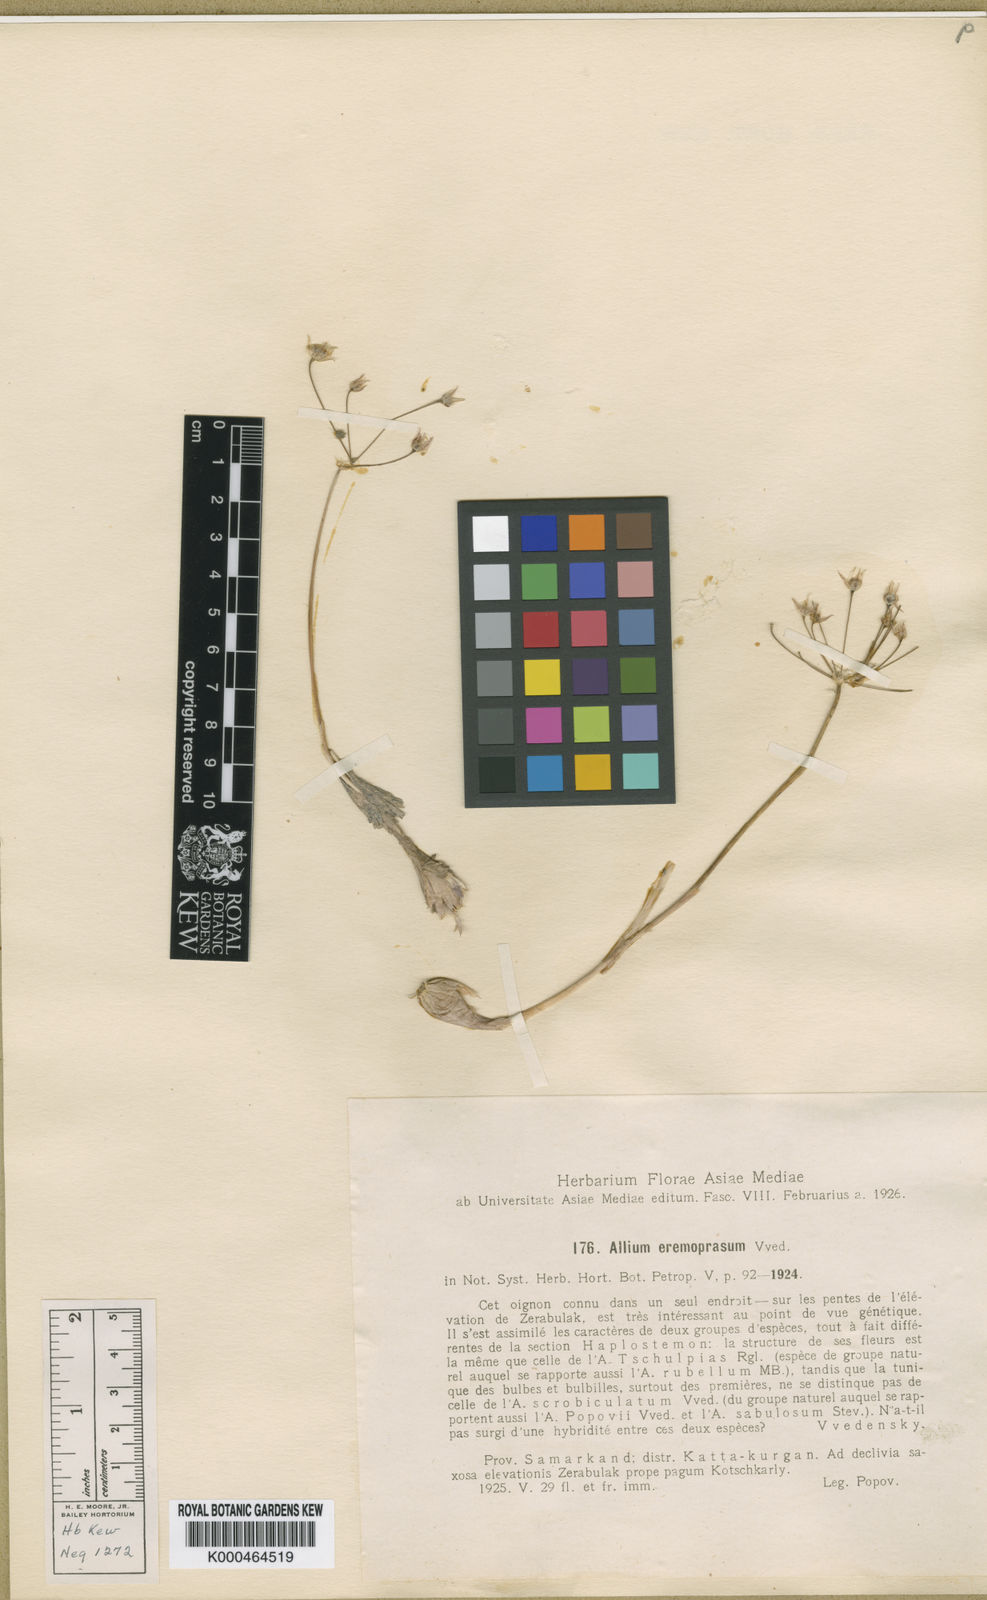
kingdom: Plantae
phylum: Tracheophyta
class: Liliopsida
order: Asparagales
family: Amaryllidaceae
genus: Allium
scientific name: Allium
